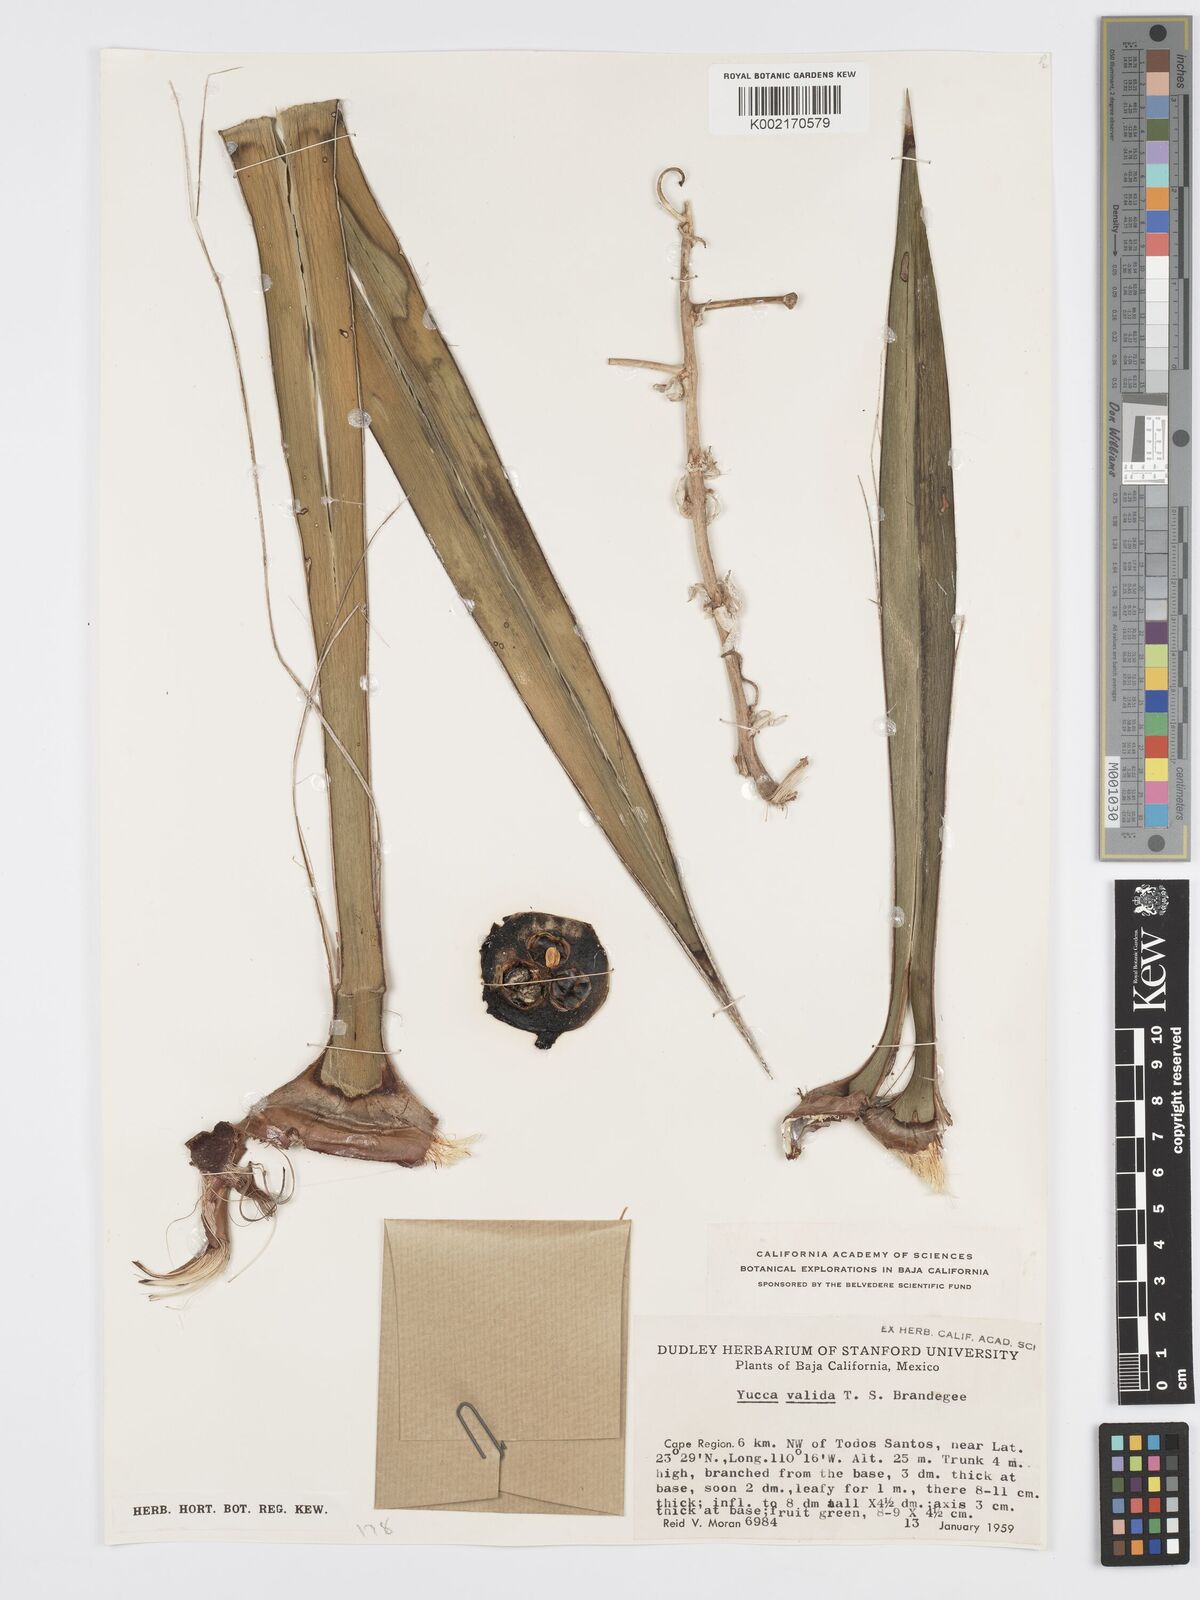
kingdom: Plantae
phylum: Tracheophyta
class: Liliopsida
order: Asparagales
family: Asparagaceae
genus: Yucca
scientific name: Yucca valida
